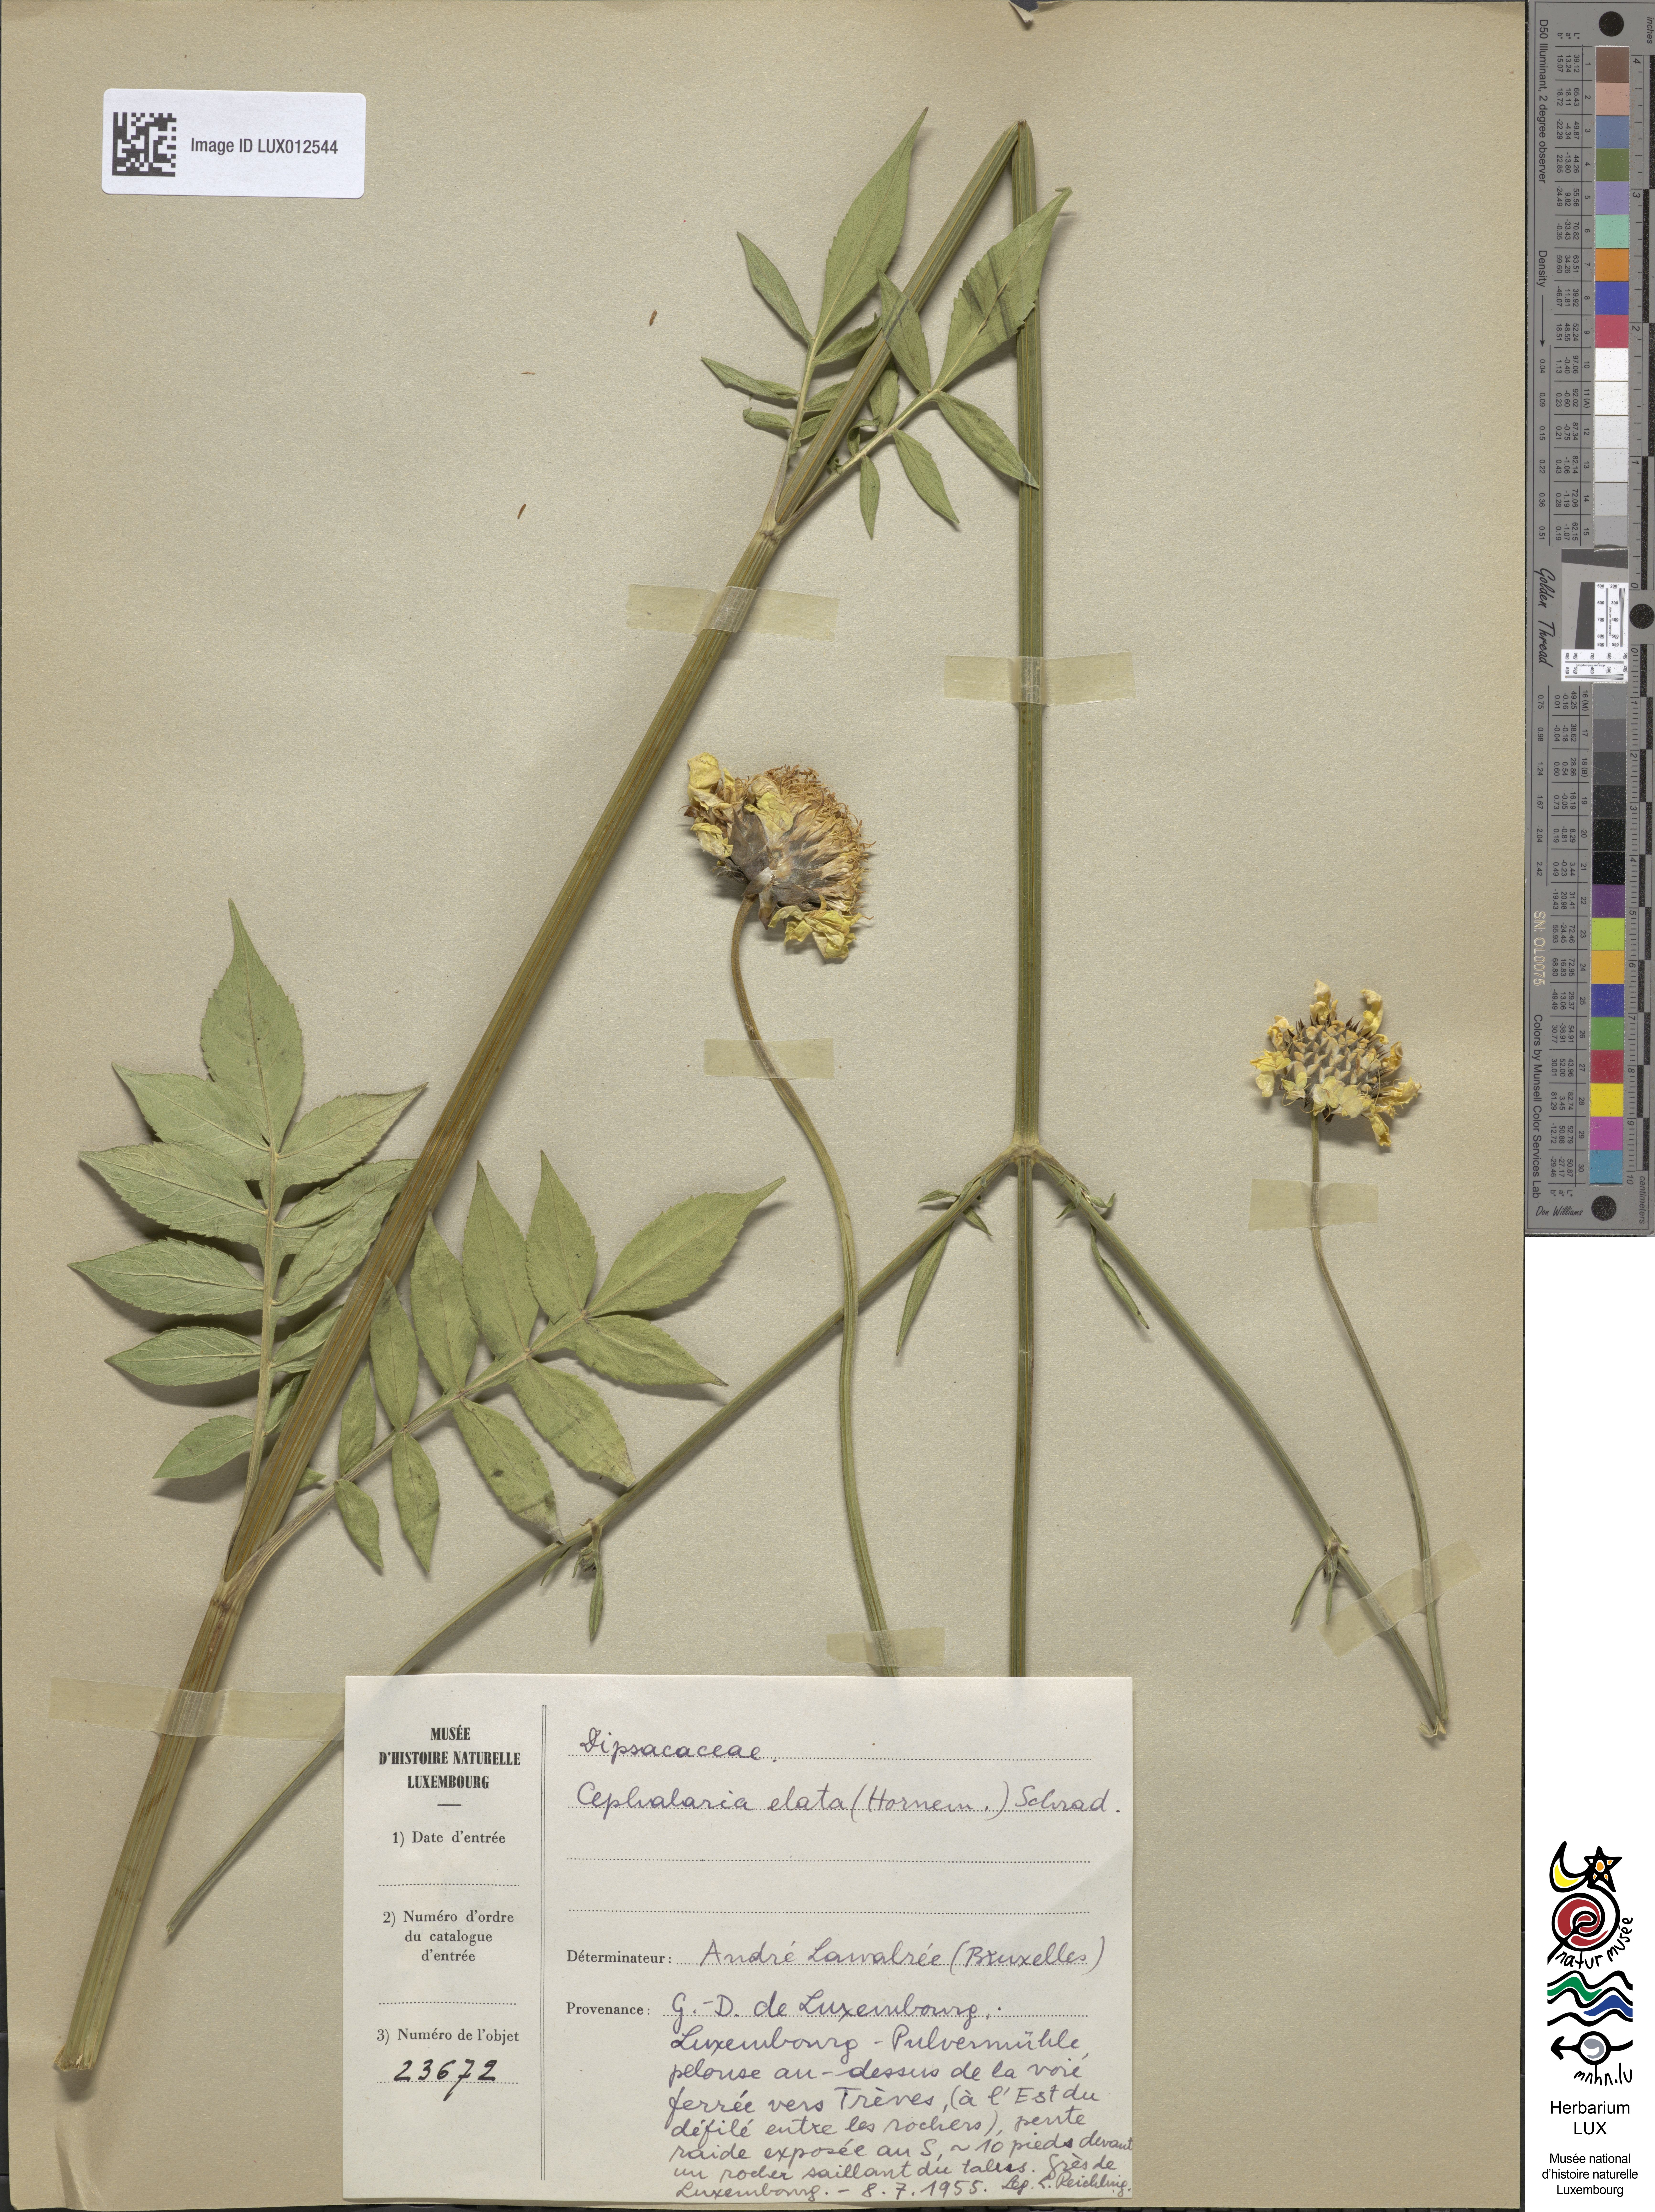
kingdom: Plantae
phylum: Tracheophyta
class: Magnoliopsida
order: Dipsacales
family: Caprifoliaceae
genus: Cephalaria
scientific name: Cephalaria gigantea
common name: Tatarian cephalaria
